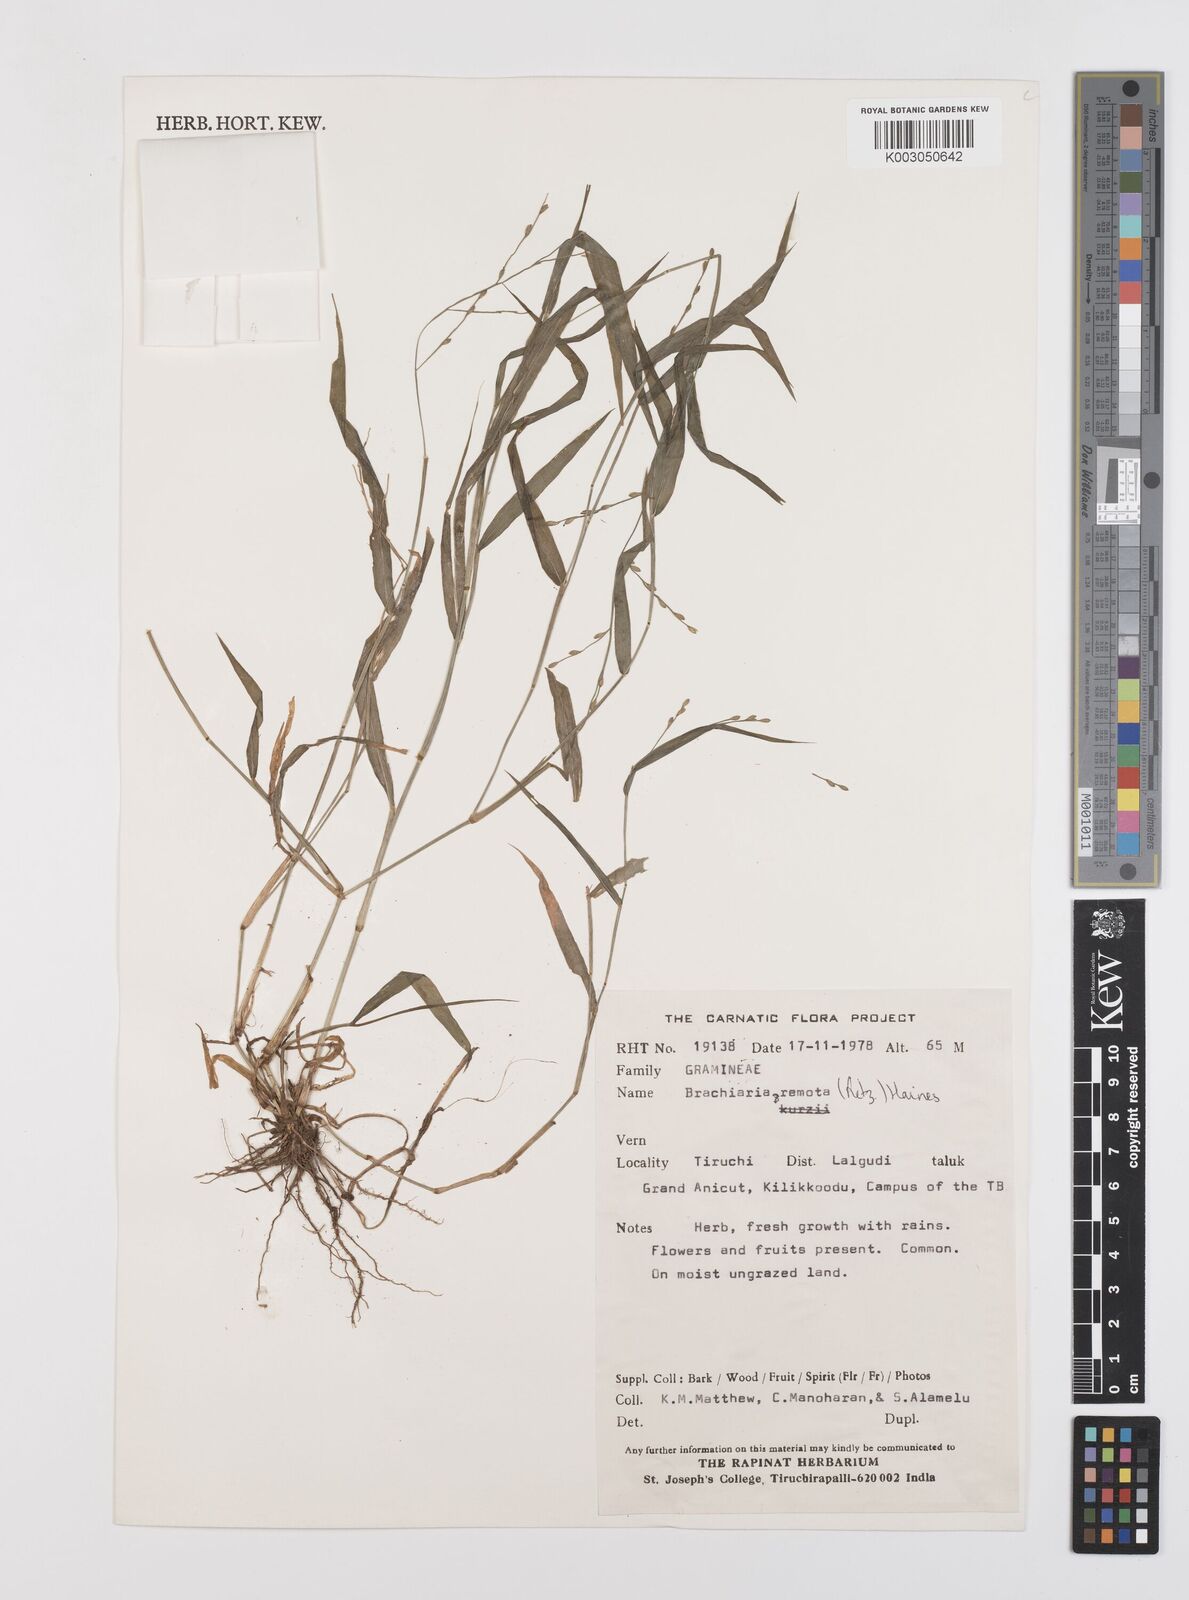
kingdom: Plantae
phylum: Tracheophyta
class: Liliopsida
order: Poales
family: Poaceae
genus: Urochloa
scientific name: Urochloa Brachiaria remota
